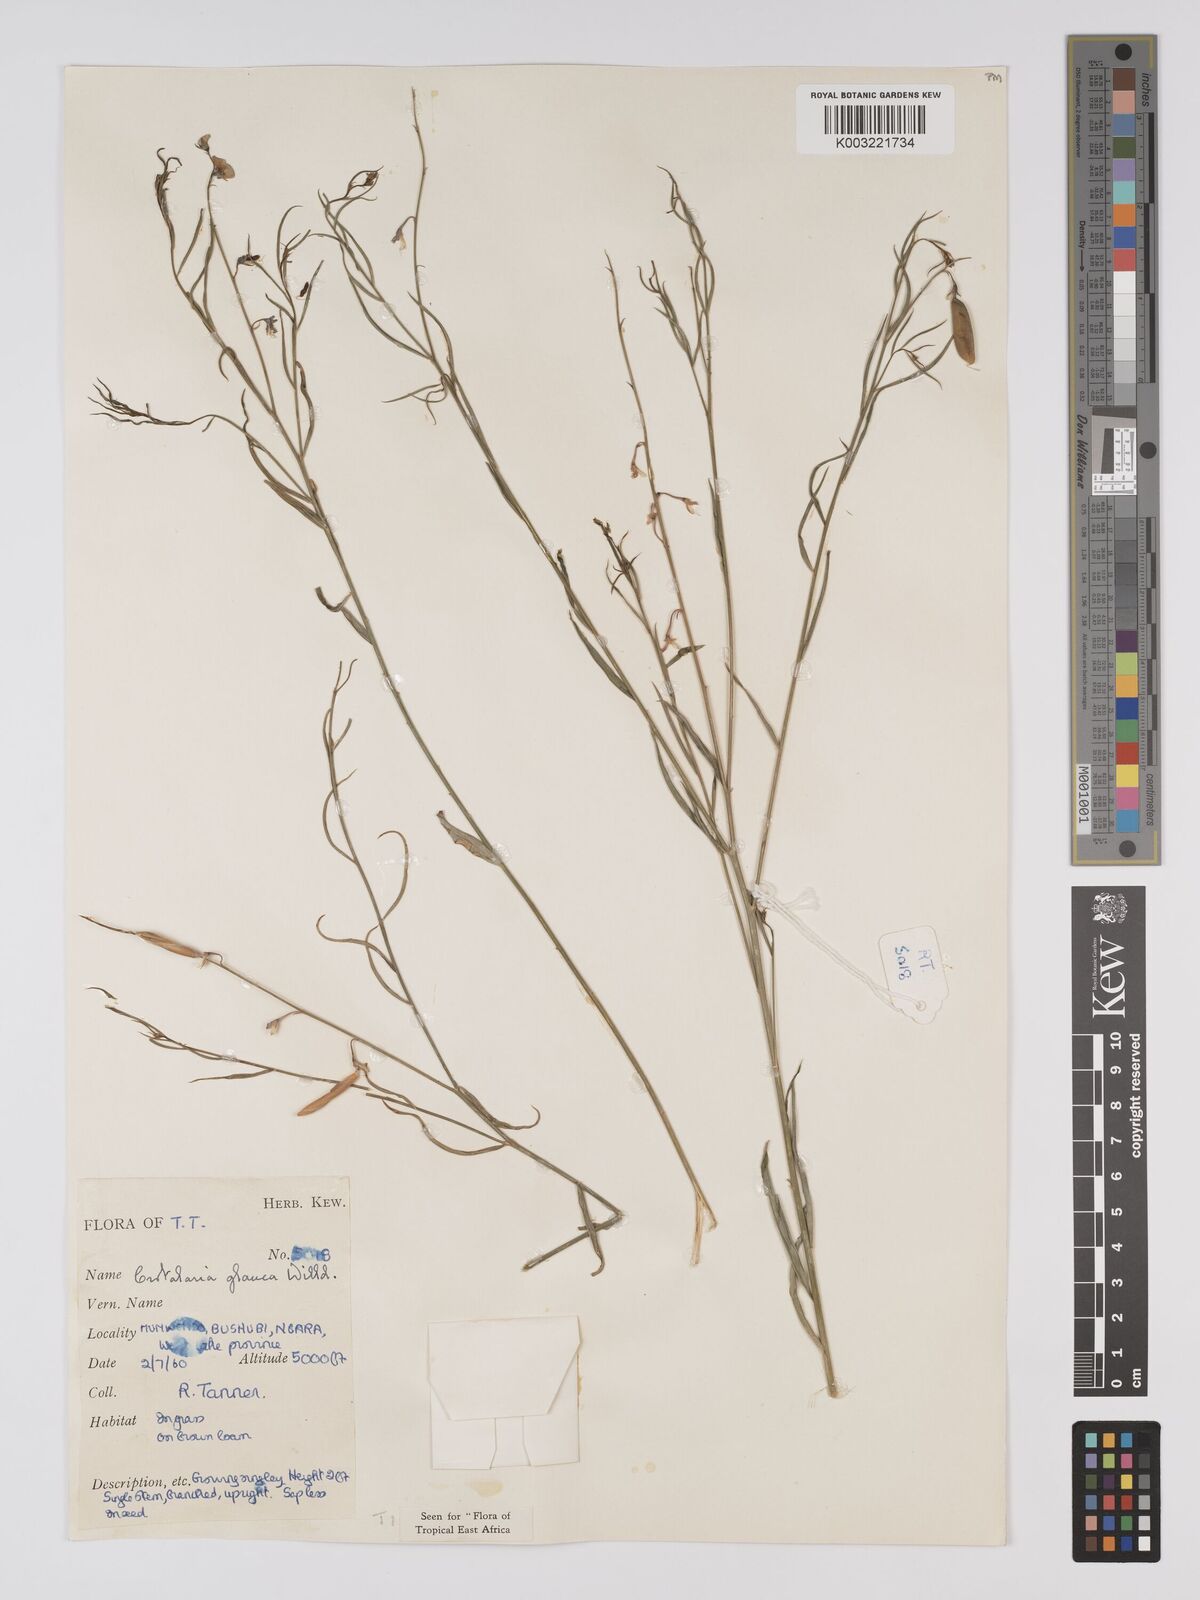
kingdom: Plantae
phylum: Tracheophyta
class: Magnoliopsida
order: Fabales
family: Fabaceae
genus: Crotalaria
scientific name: Crotalaria glauca
